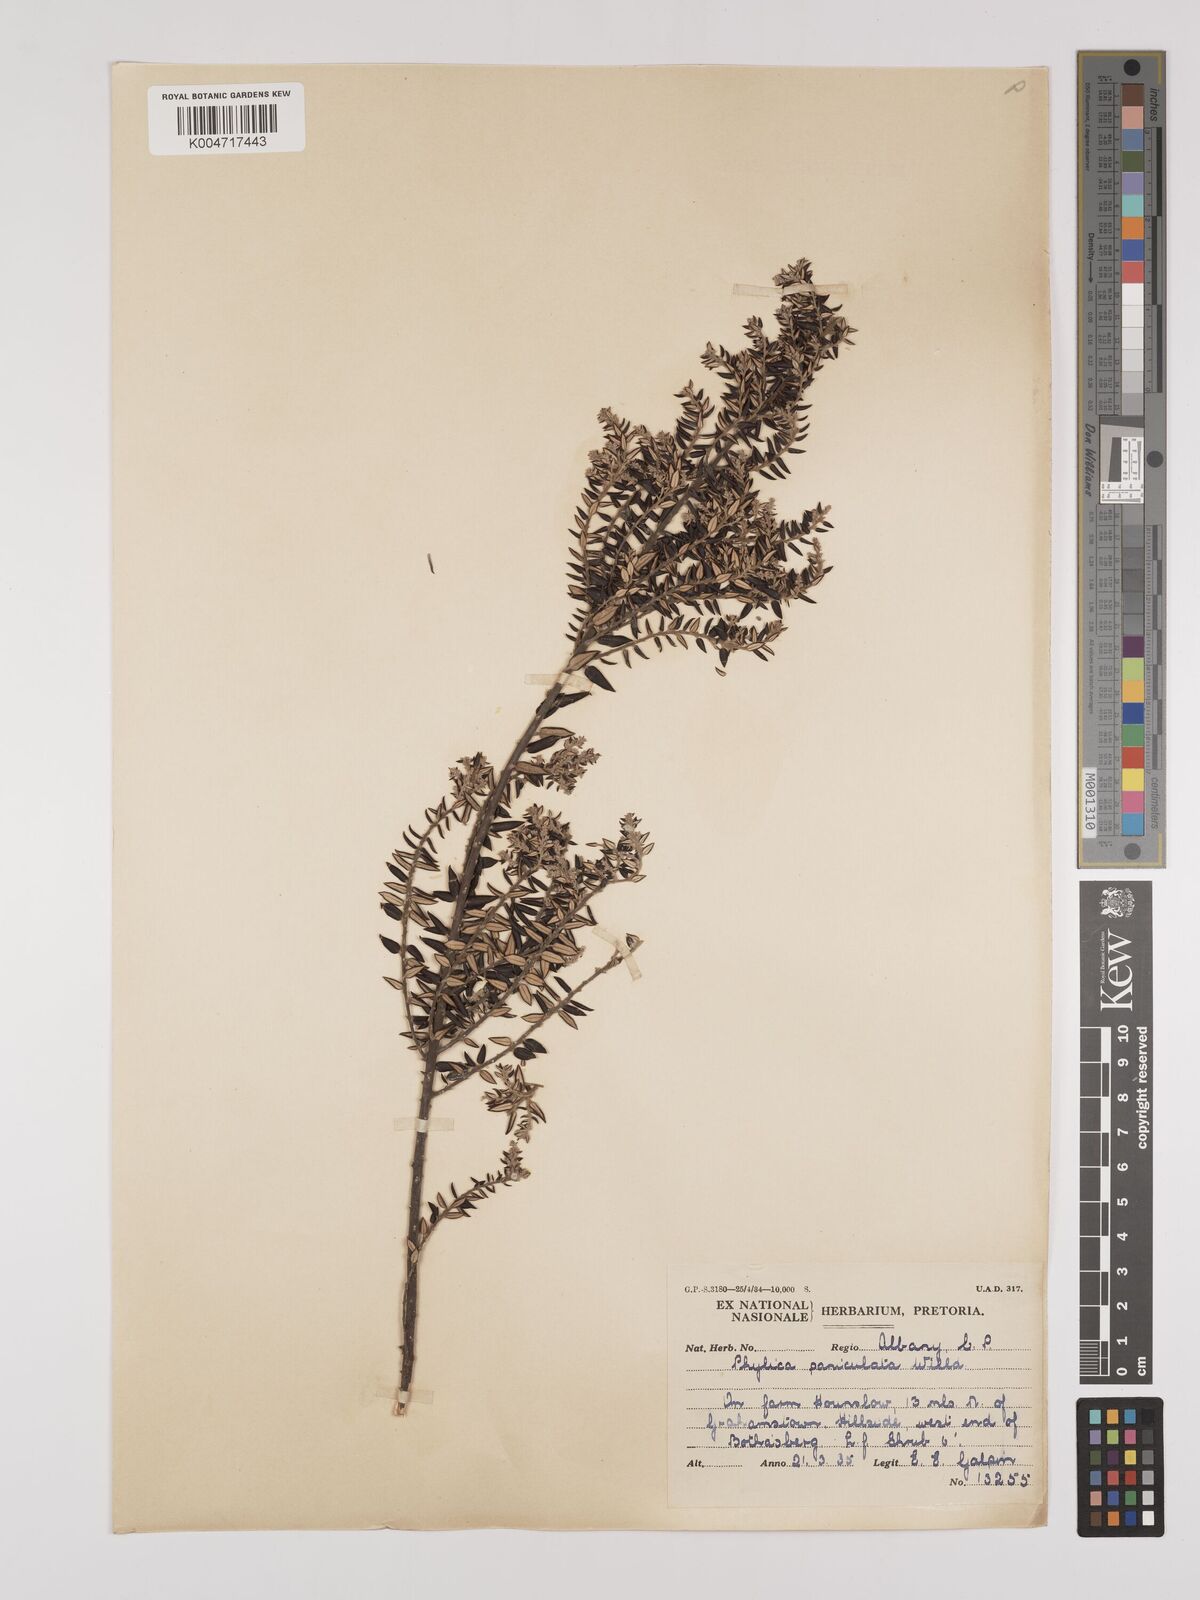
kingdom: Plantae
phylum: Tracheophyta
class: Magnoliopsida
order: Rosales
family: Rhamnaceae
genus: Phylica
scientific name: Phylica paniculata
